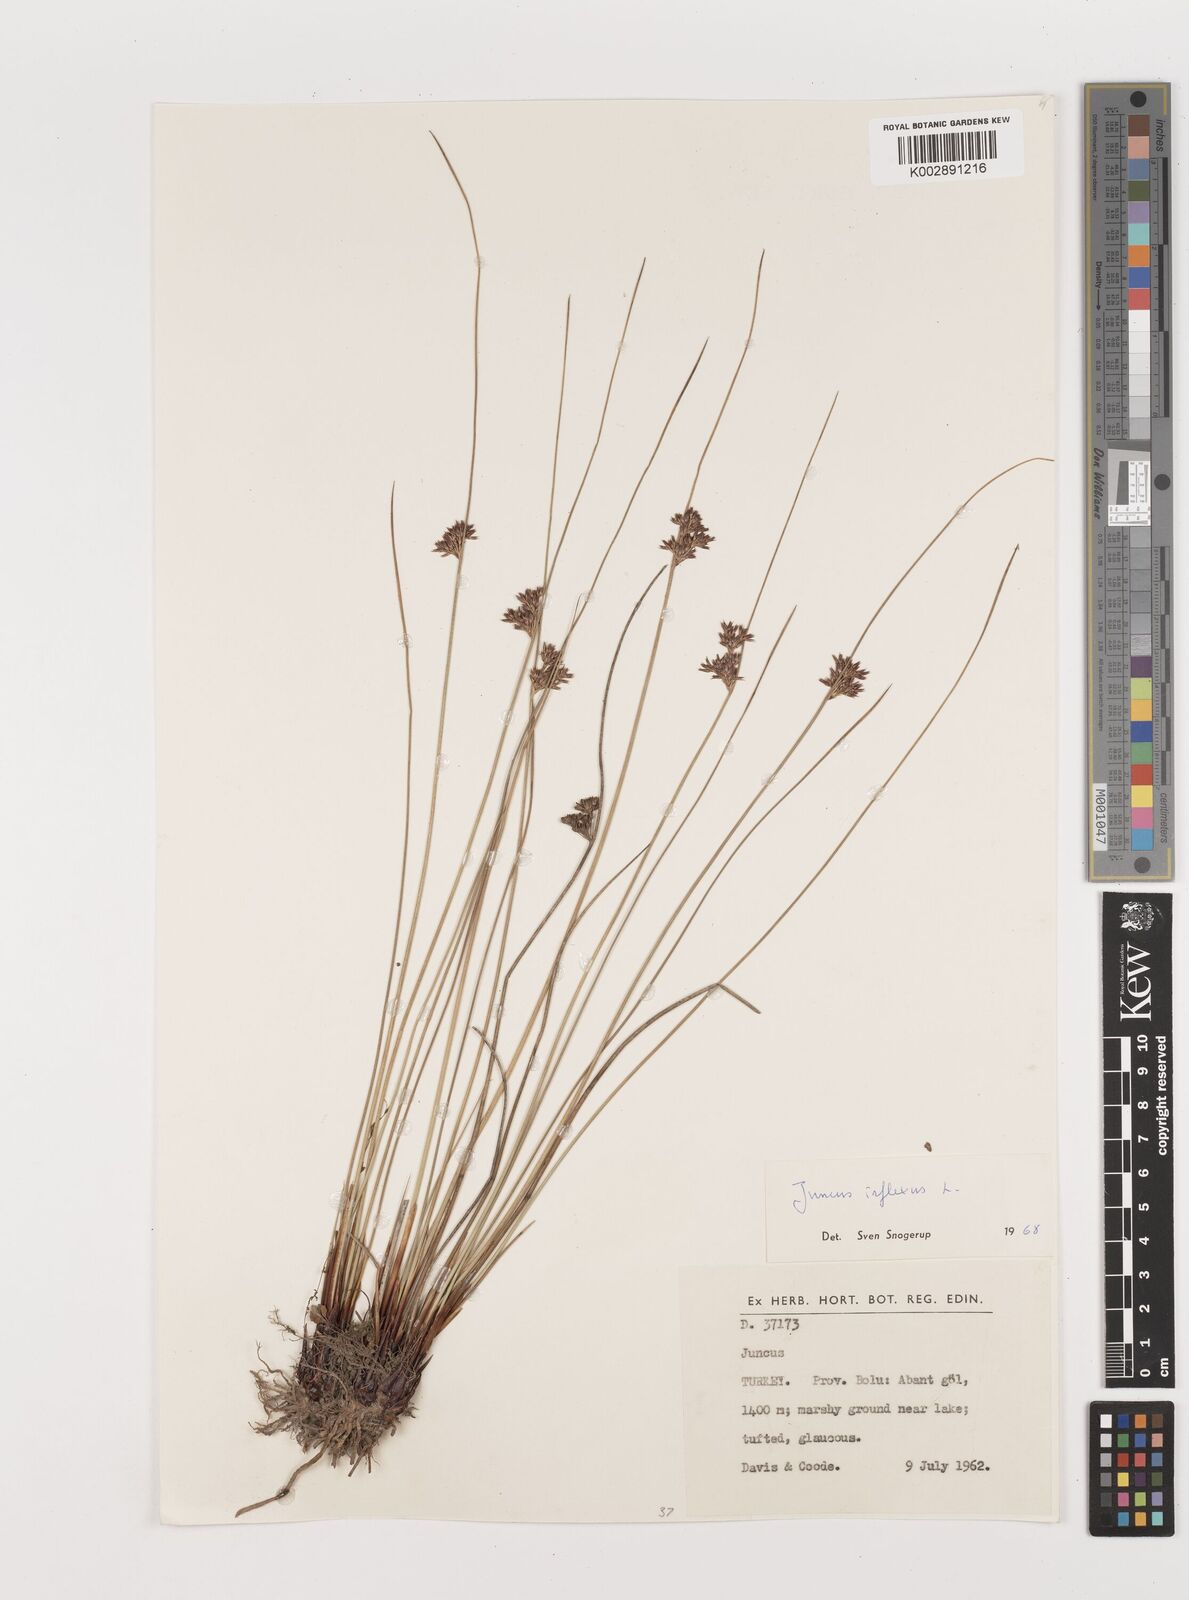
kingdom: Plantae
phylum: Tracheophyta
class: Liliopsida
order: Poales
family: Juncaceae
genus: Juncus
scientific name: Juncus inflexus
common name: Hard rush
